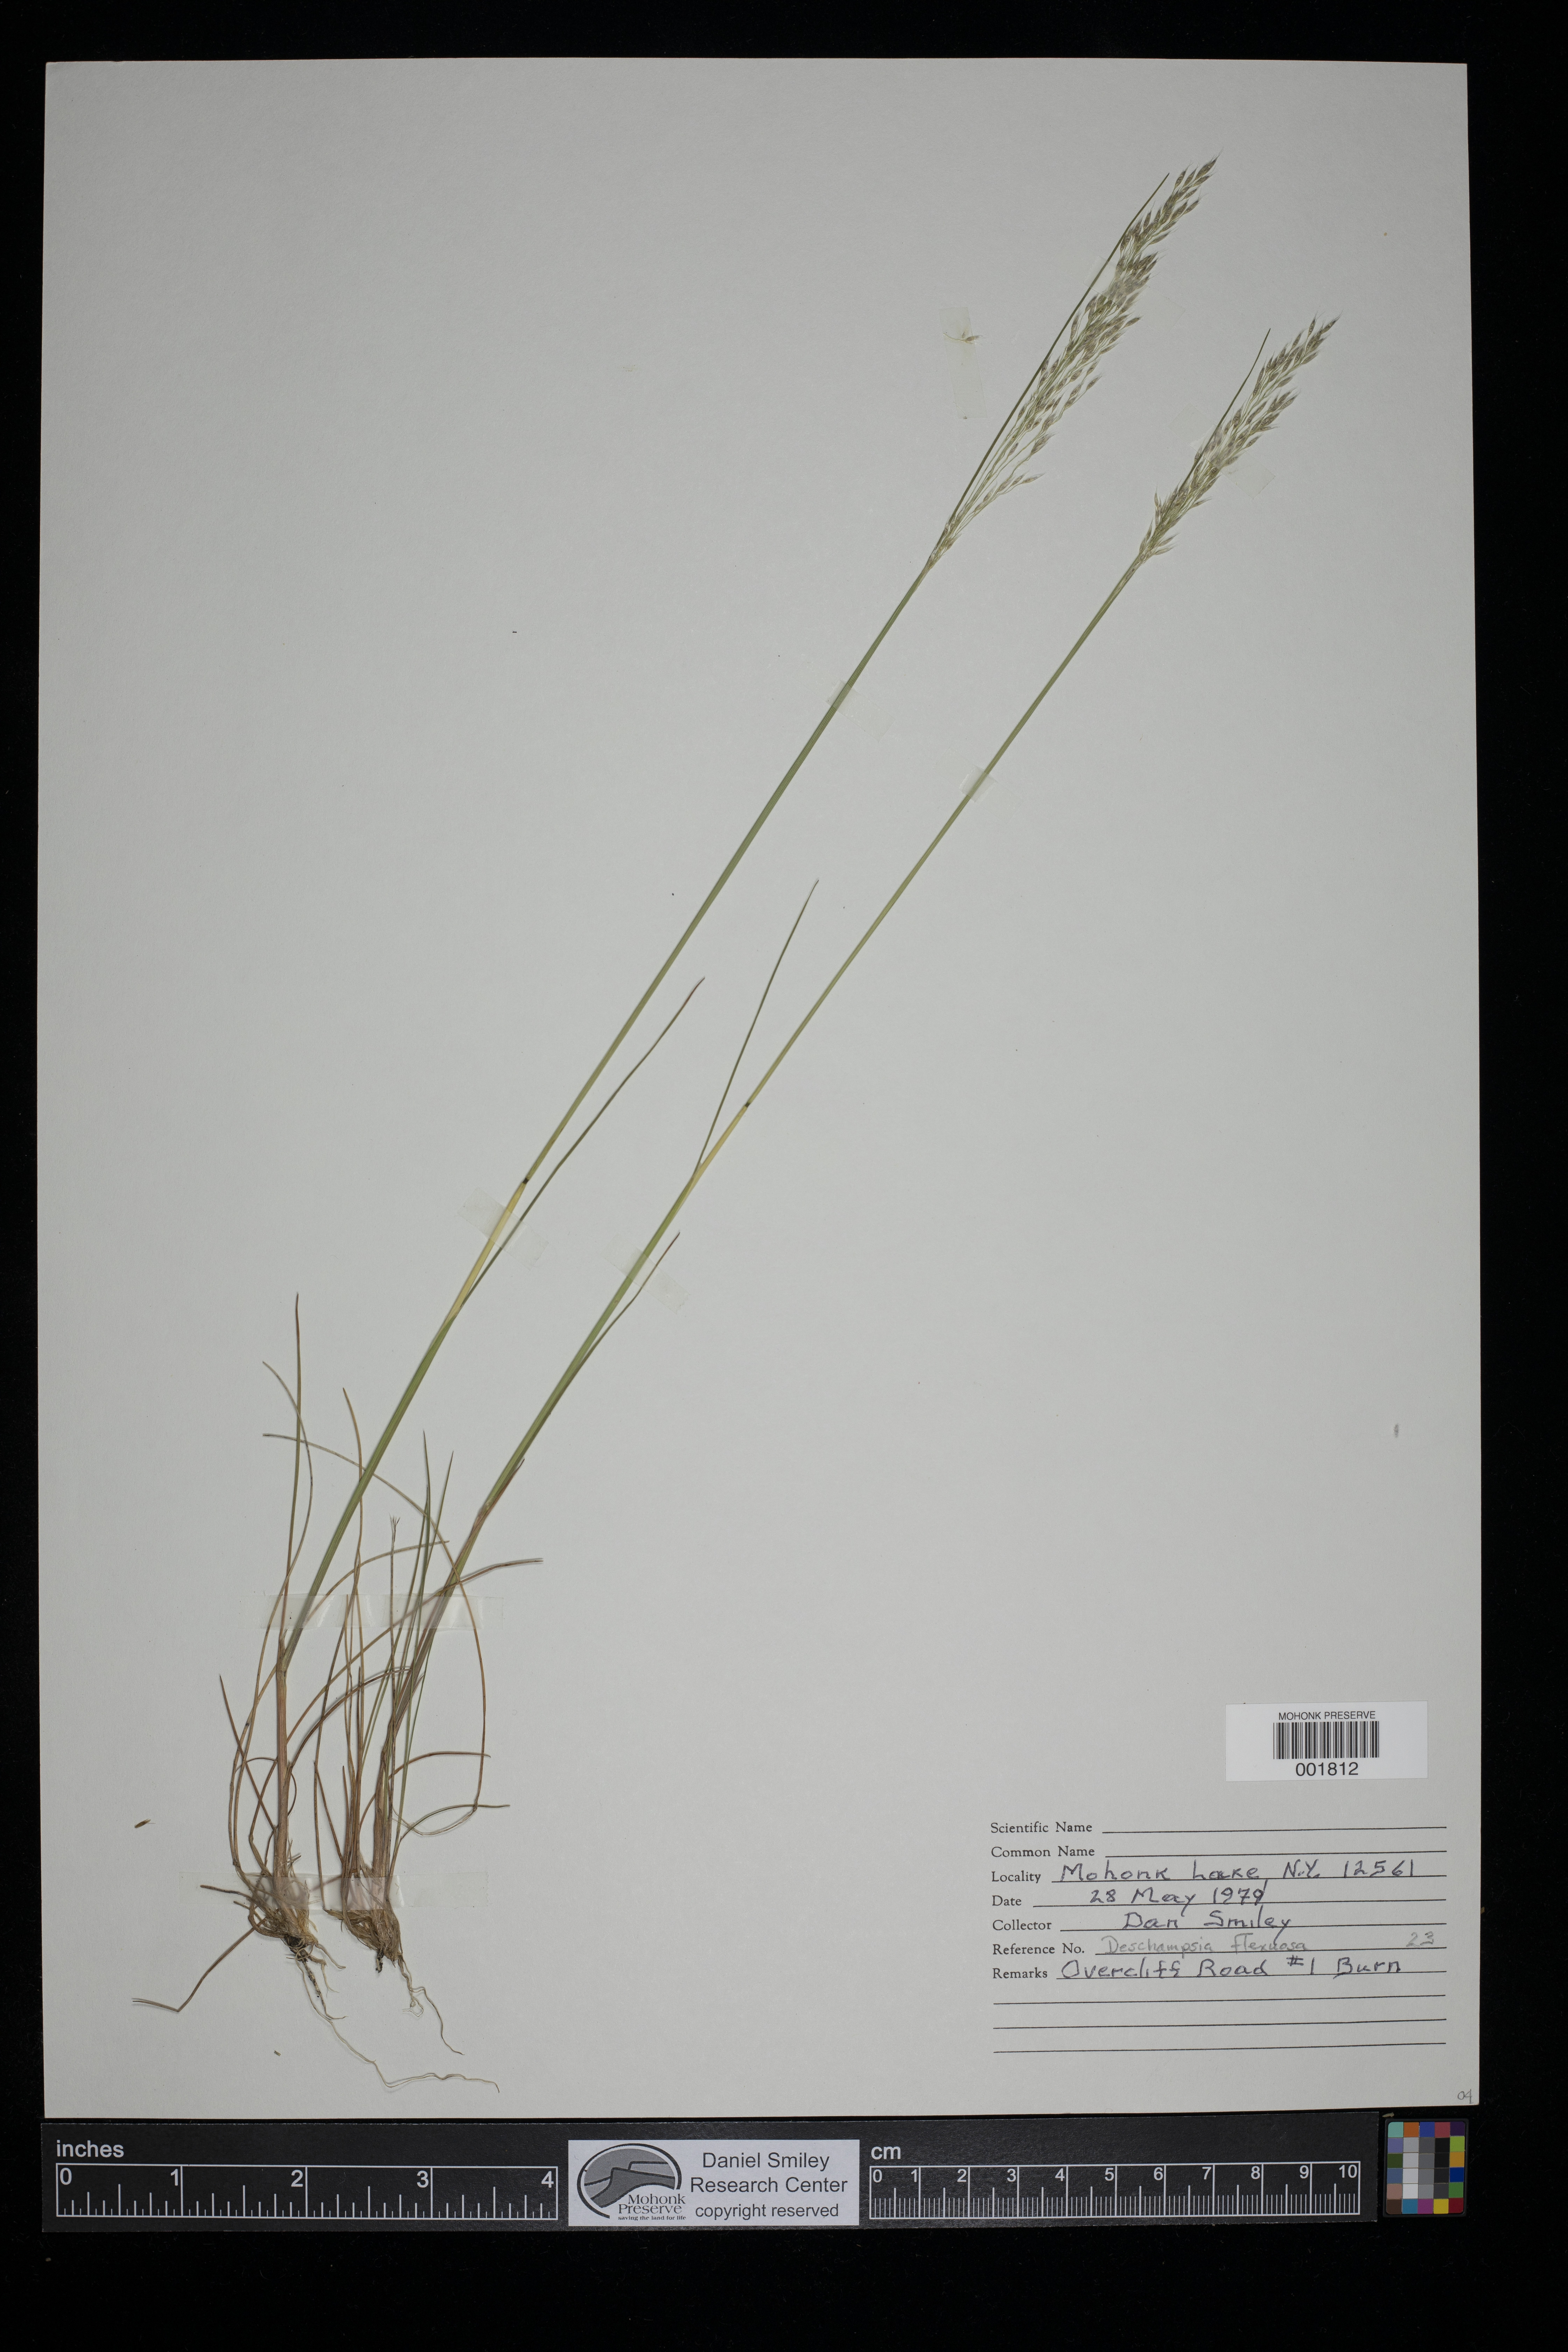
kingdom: Plantae
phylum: Tracheophyta
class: Liliopsida
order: Poales
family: Poaceae
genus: Avenella
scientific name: Avenella flexuosa
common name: Wavy hairgrass
